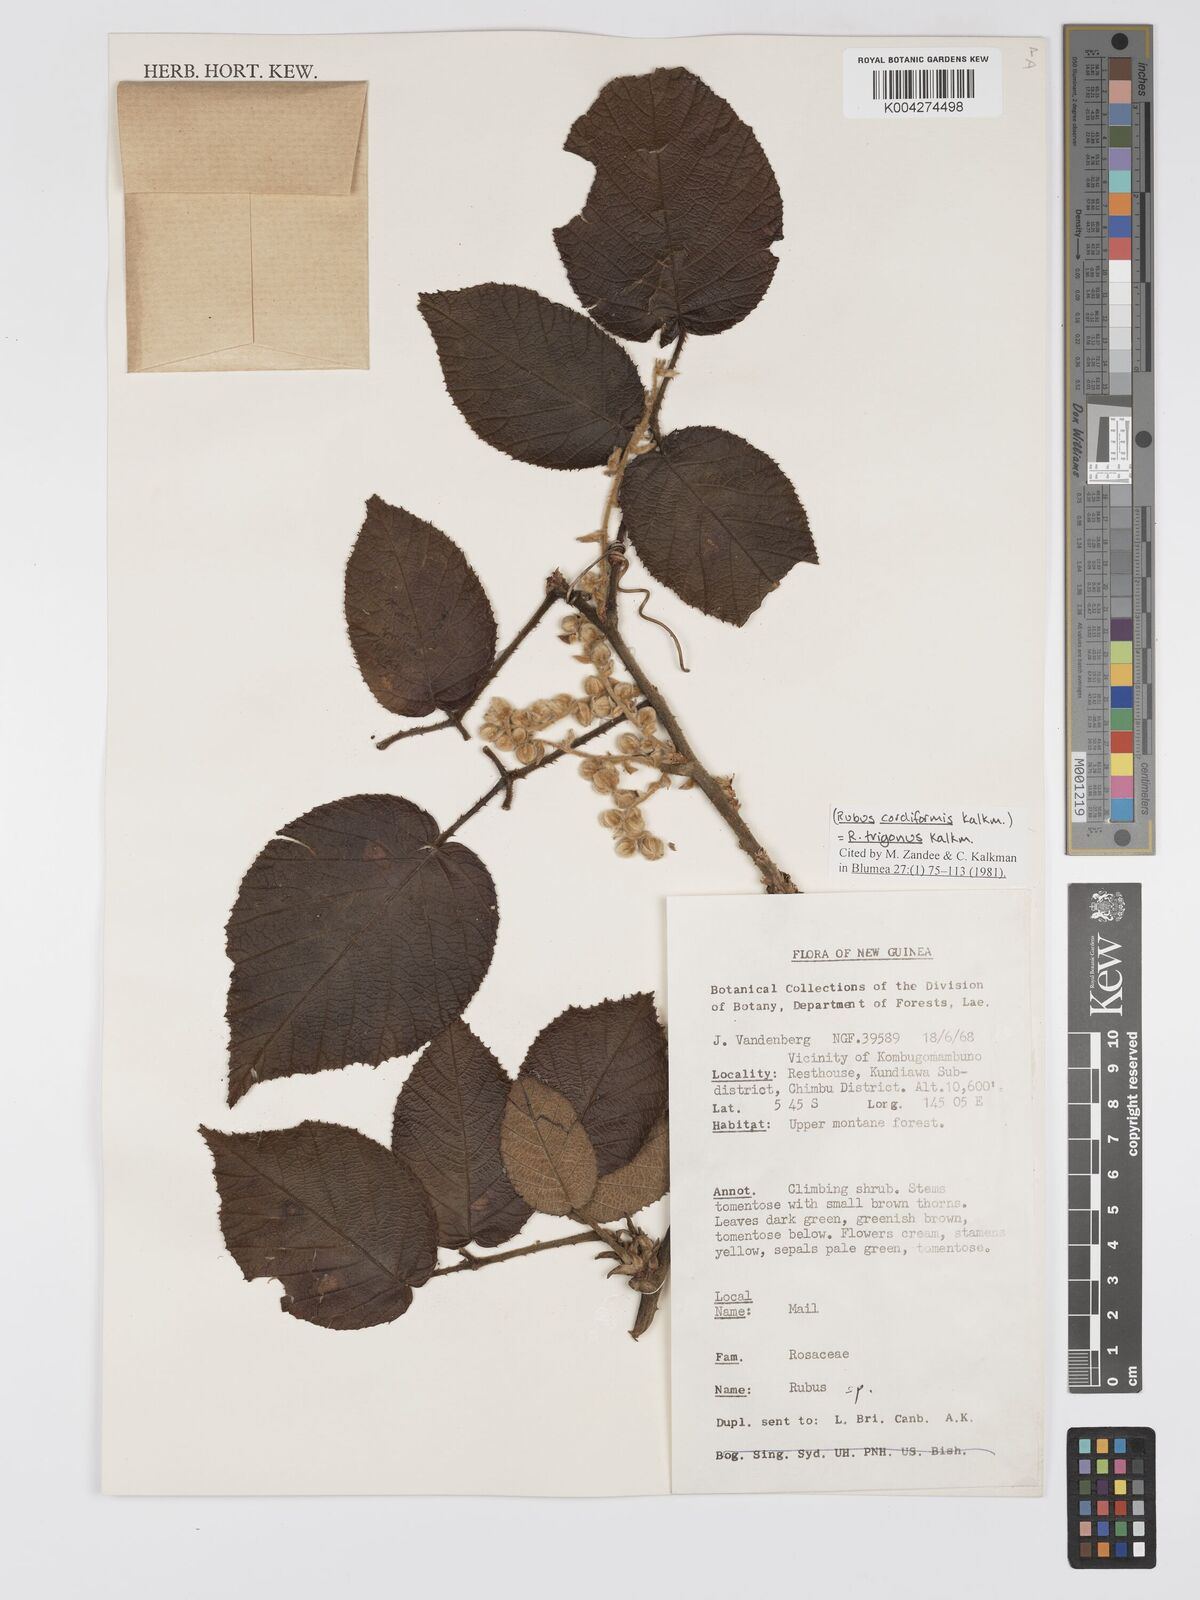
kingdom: Plantae
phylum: Tracheophyta
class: Magnoliopsida
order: Rosales
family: Rosaceae
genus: Rubus
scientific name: Rubus trigonus
